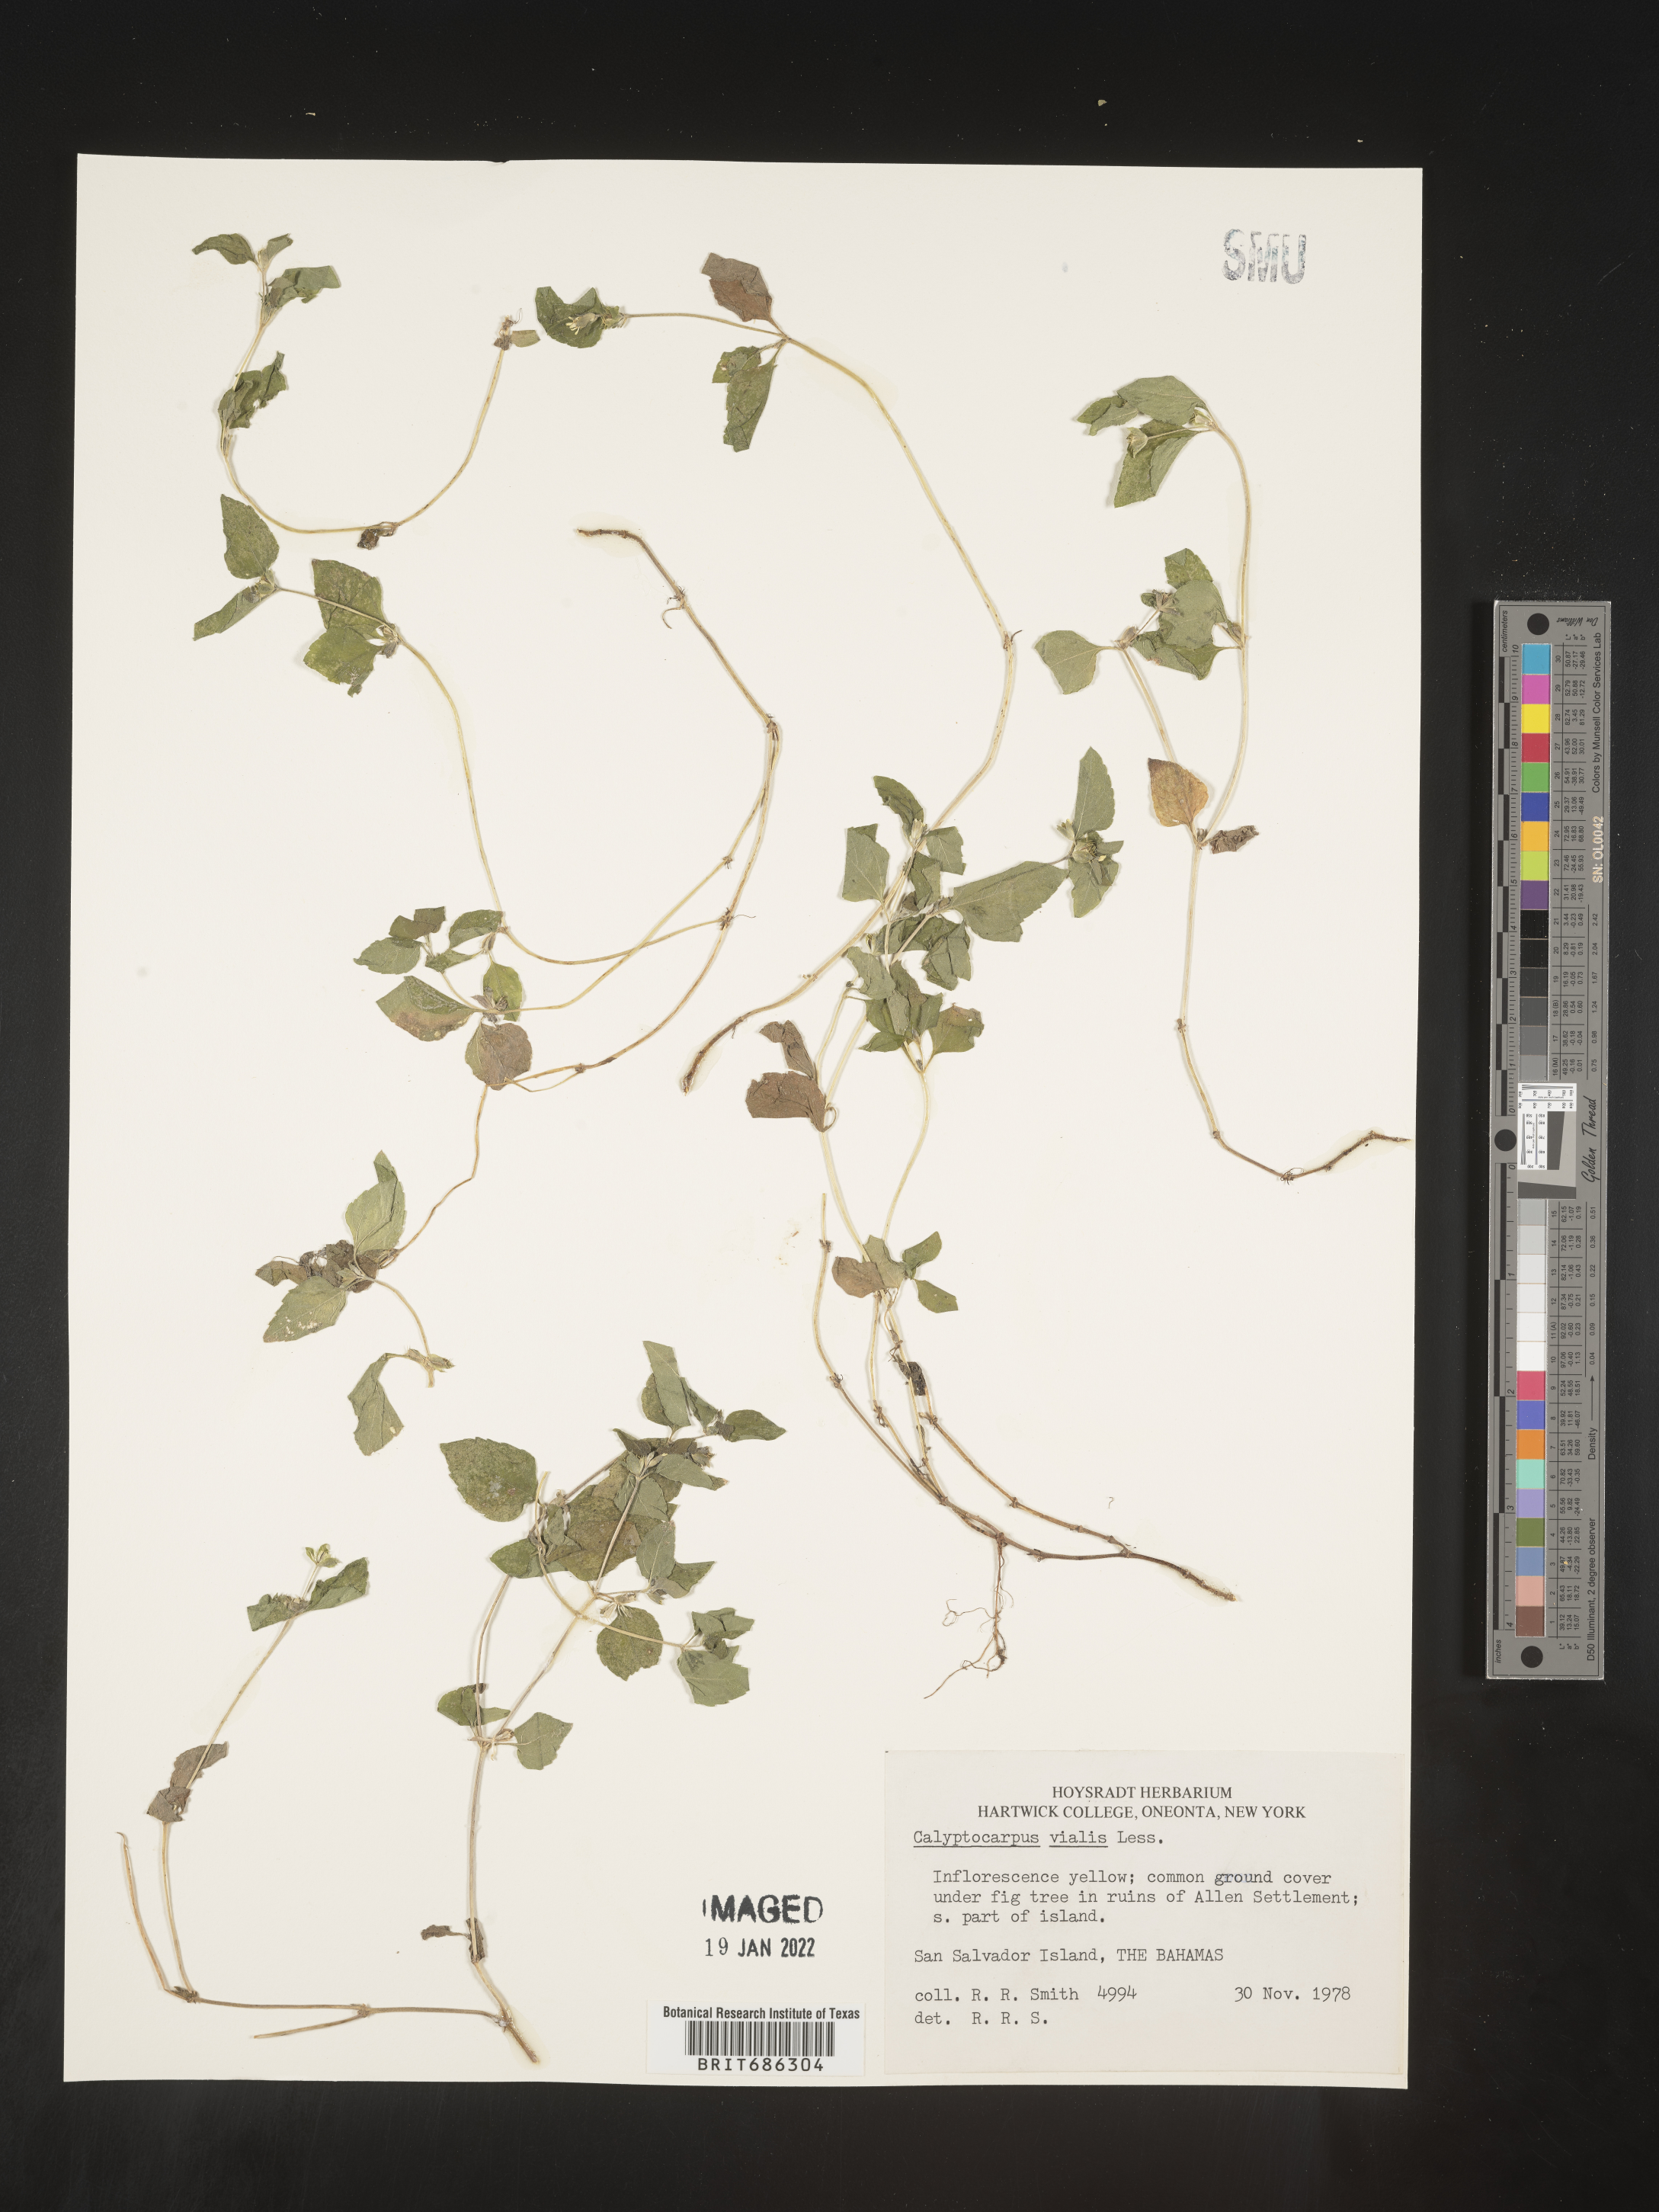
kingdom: Plantae
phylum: Tracheophyta
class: Magnoliopsida
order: Asterales
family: Asteraceae
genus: Calyptocarpus
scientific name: Calyptocarpus
